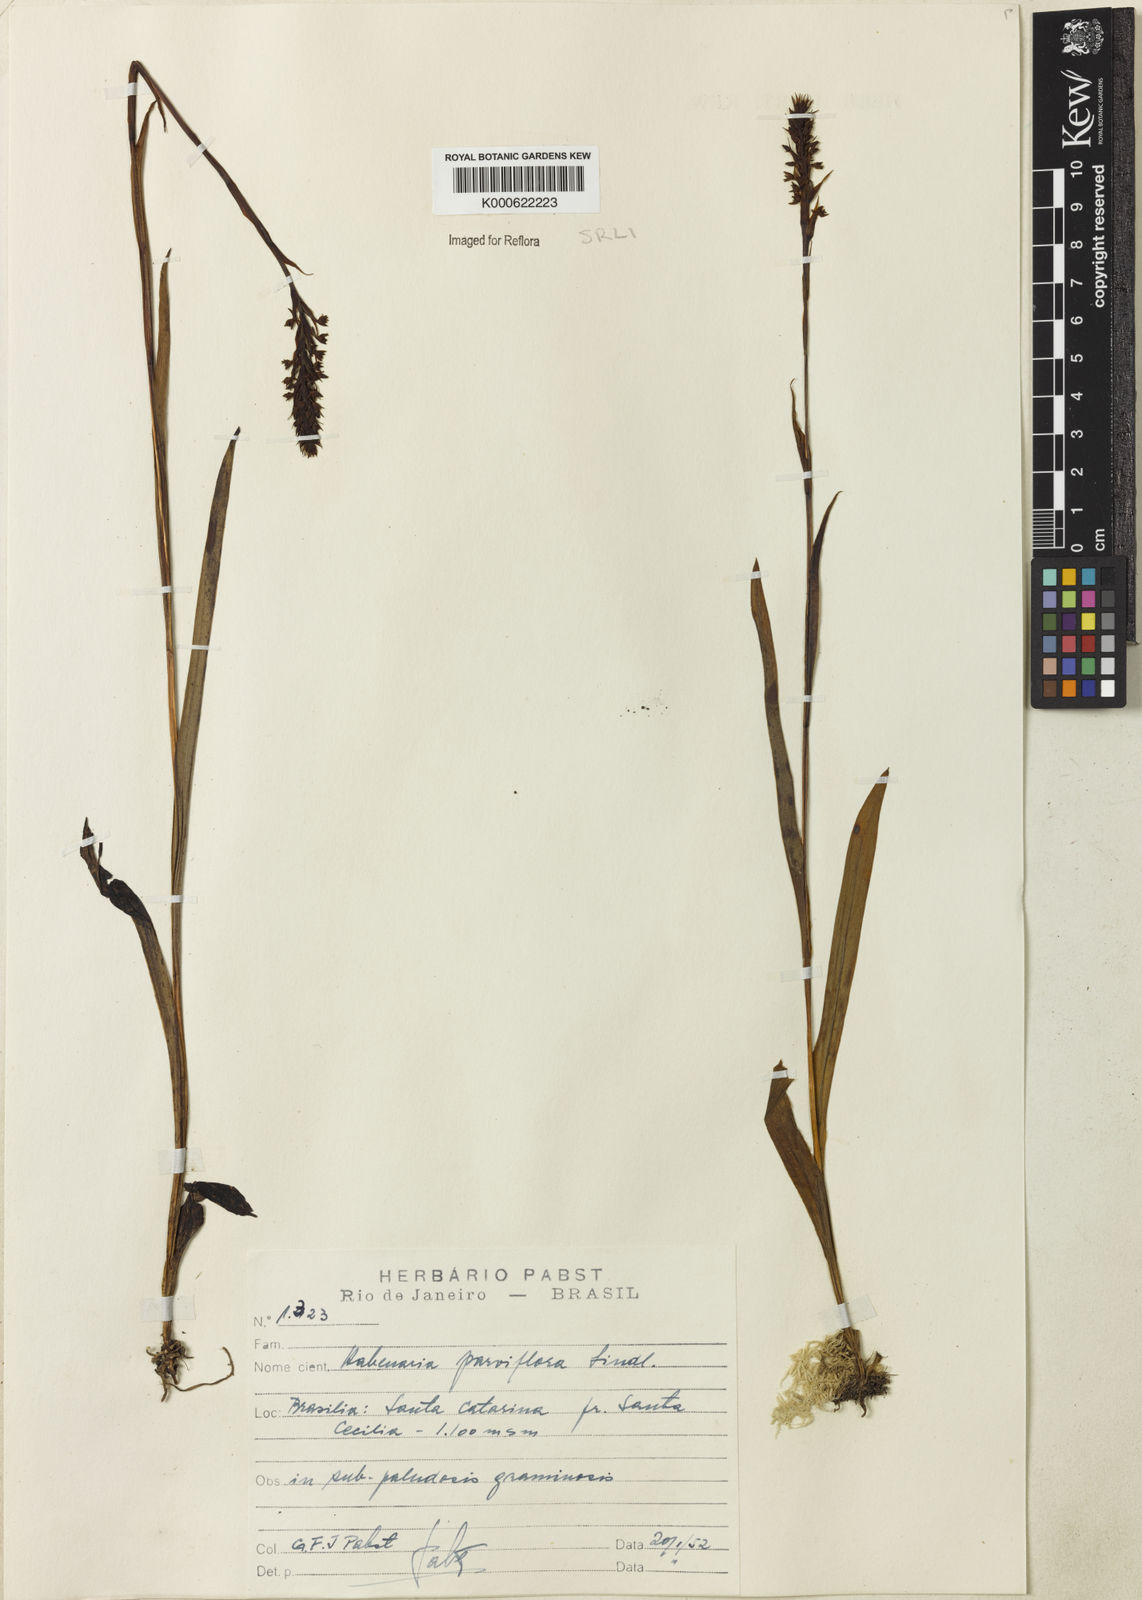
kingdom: Plantae
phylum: Tracheophyta
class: Liliopsida
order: Asparagales
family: Orchidaceae
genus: Habenaria
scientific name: Habenaria parviflora
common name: Small flowered habenaria
